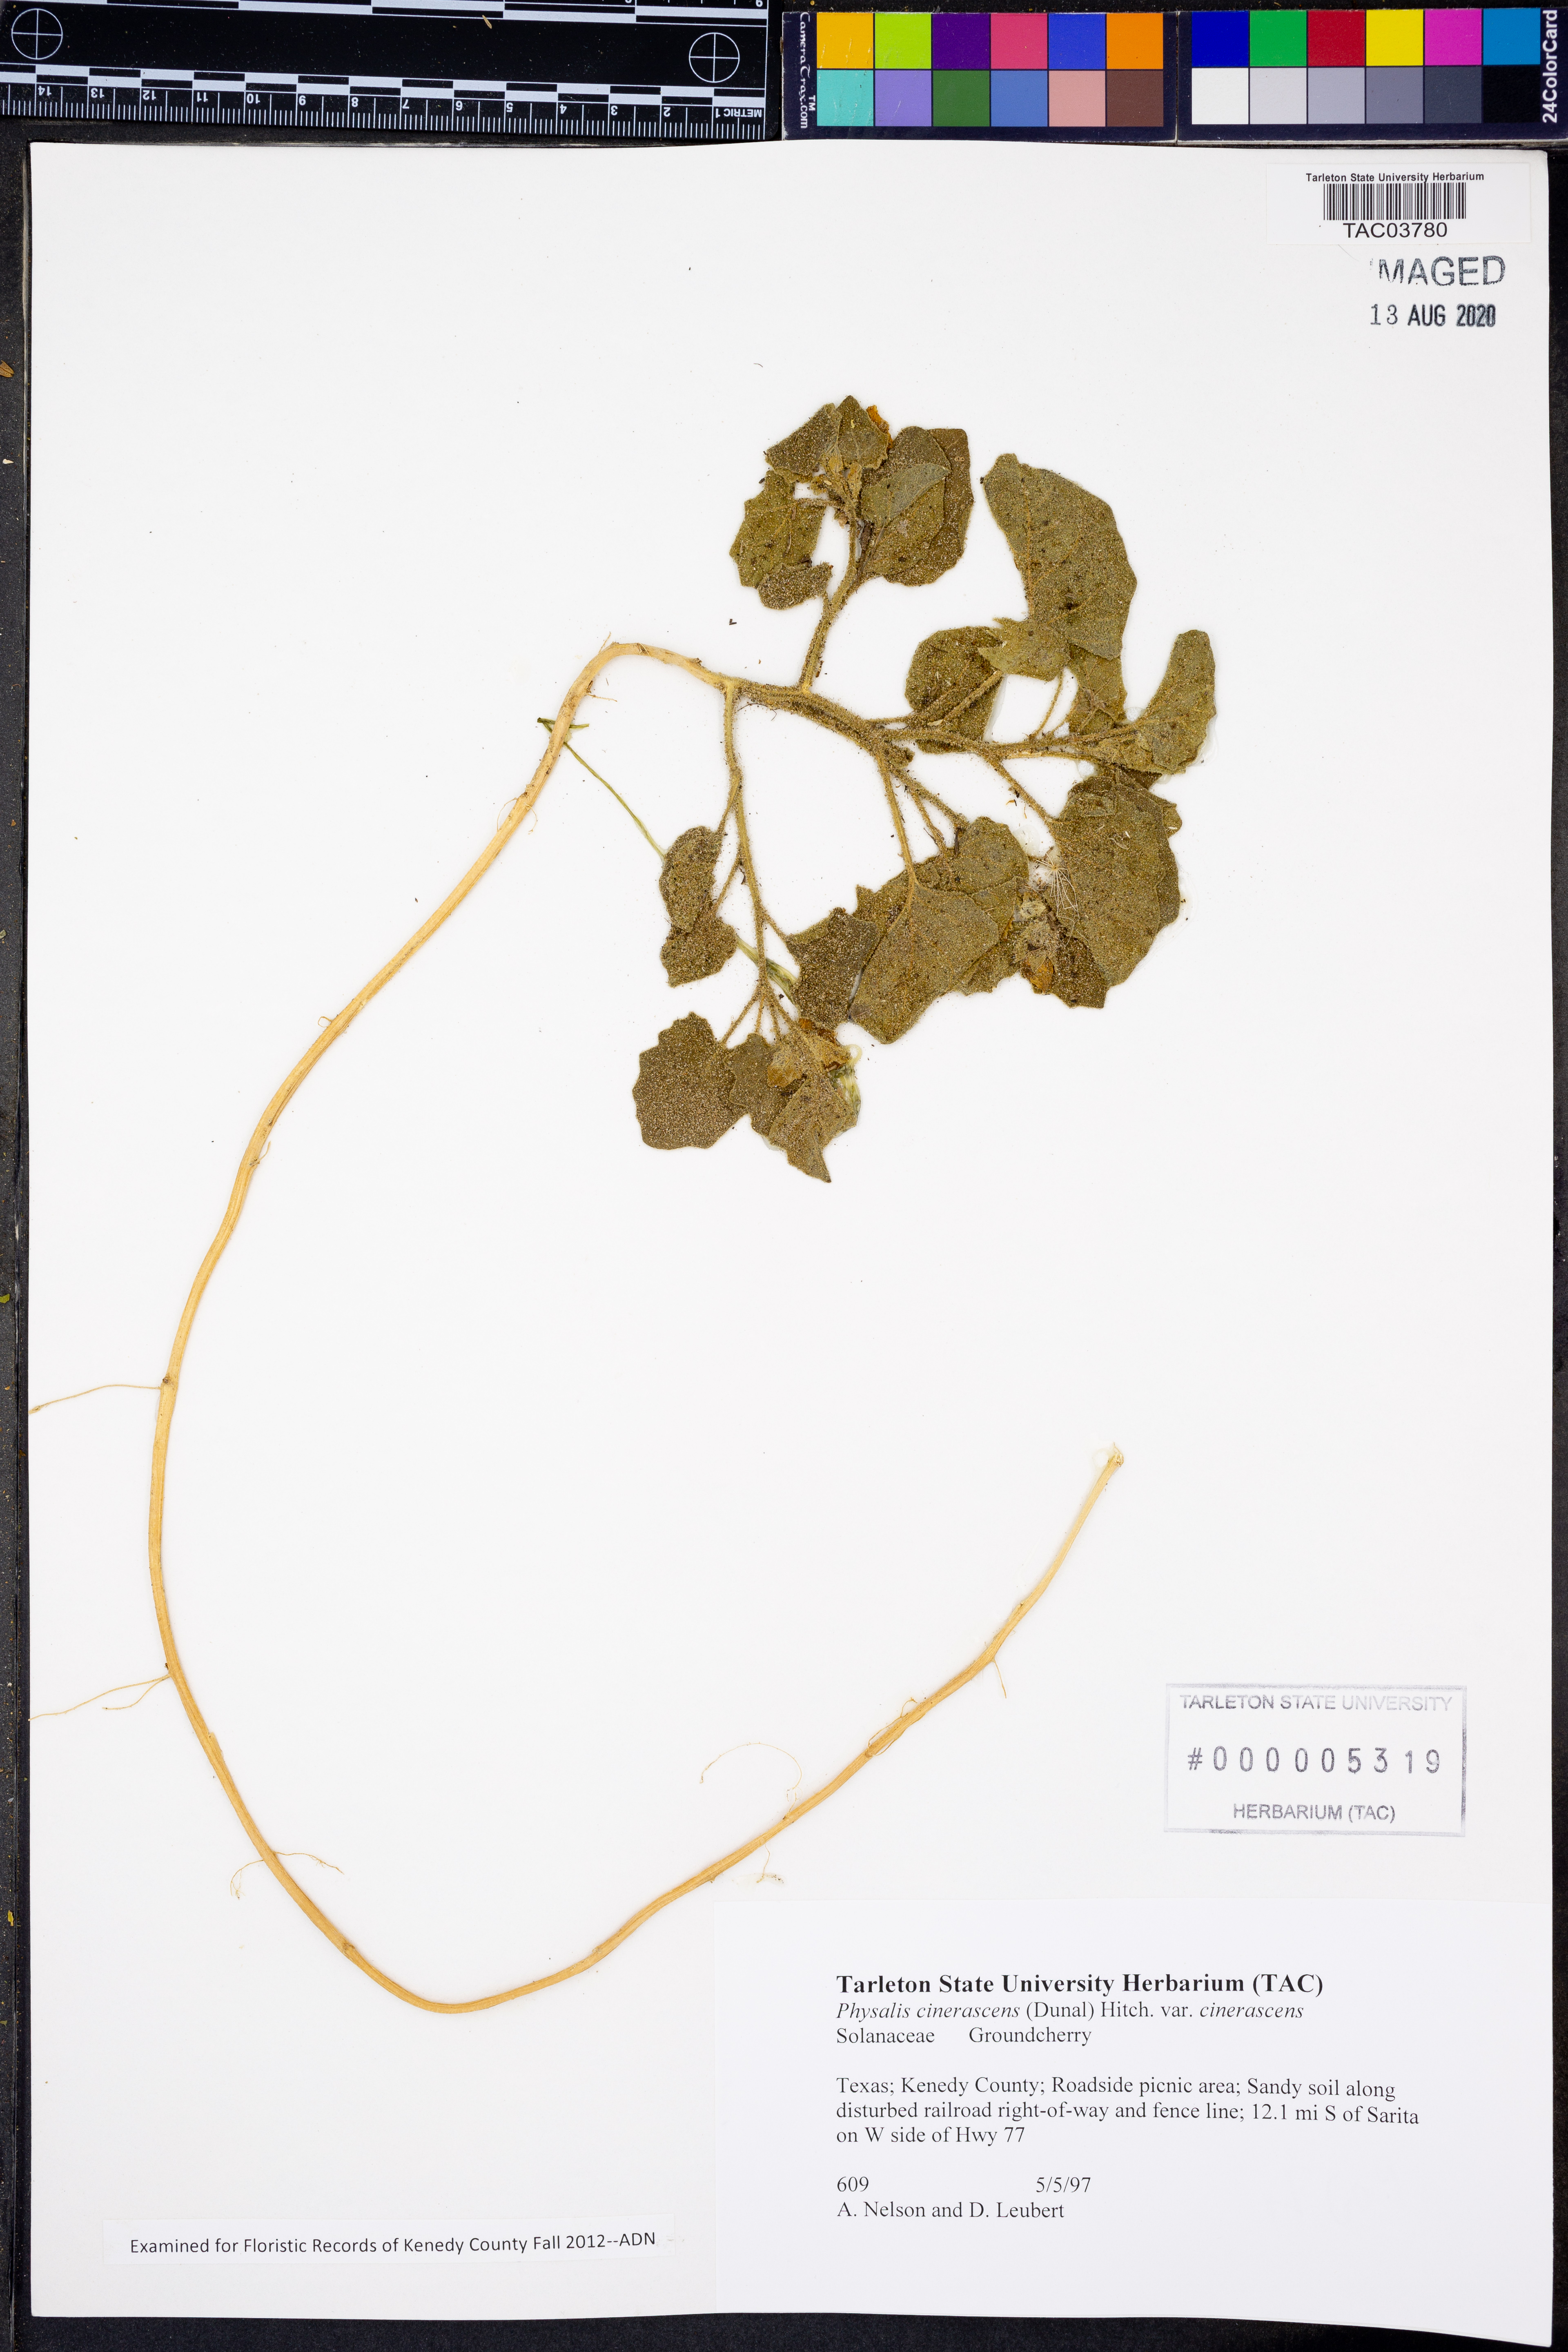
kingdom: Plantae
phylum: Tracheophyta
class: Magnoliopsida
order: Solanales
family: Solanaceae
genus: Physalis
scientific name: Physalis cinerascens
